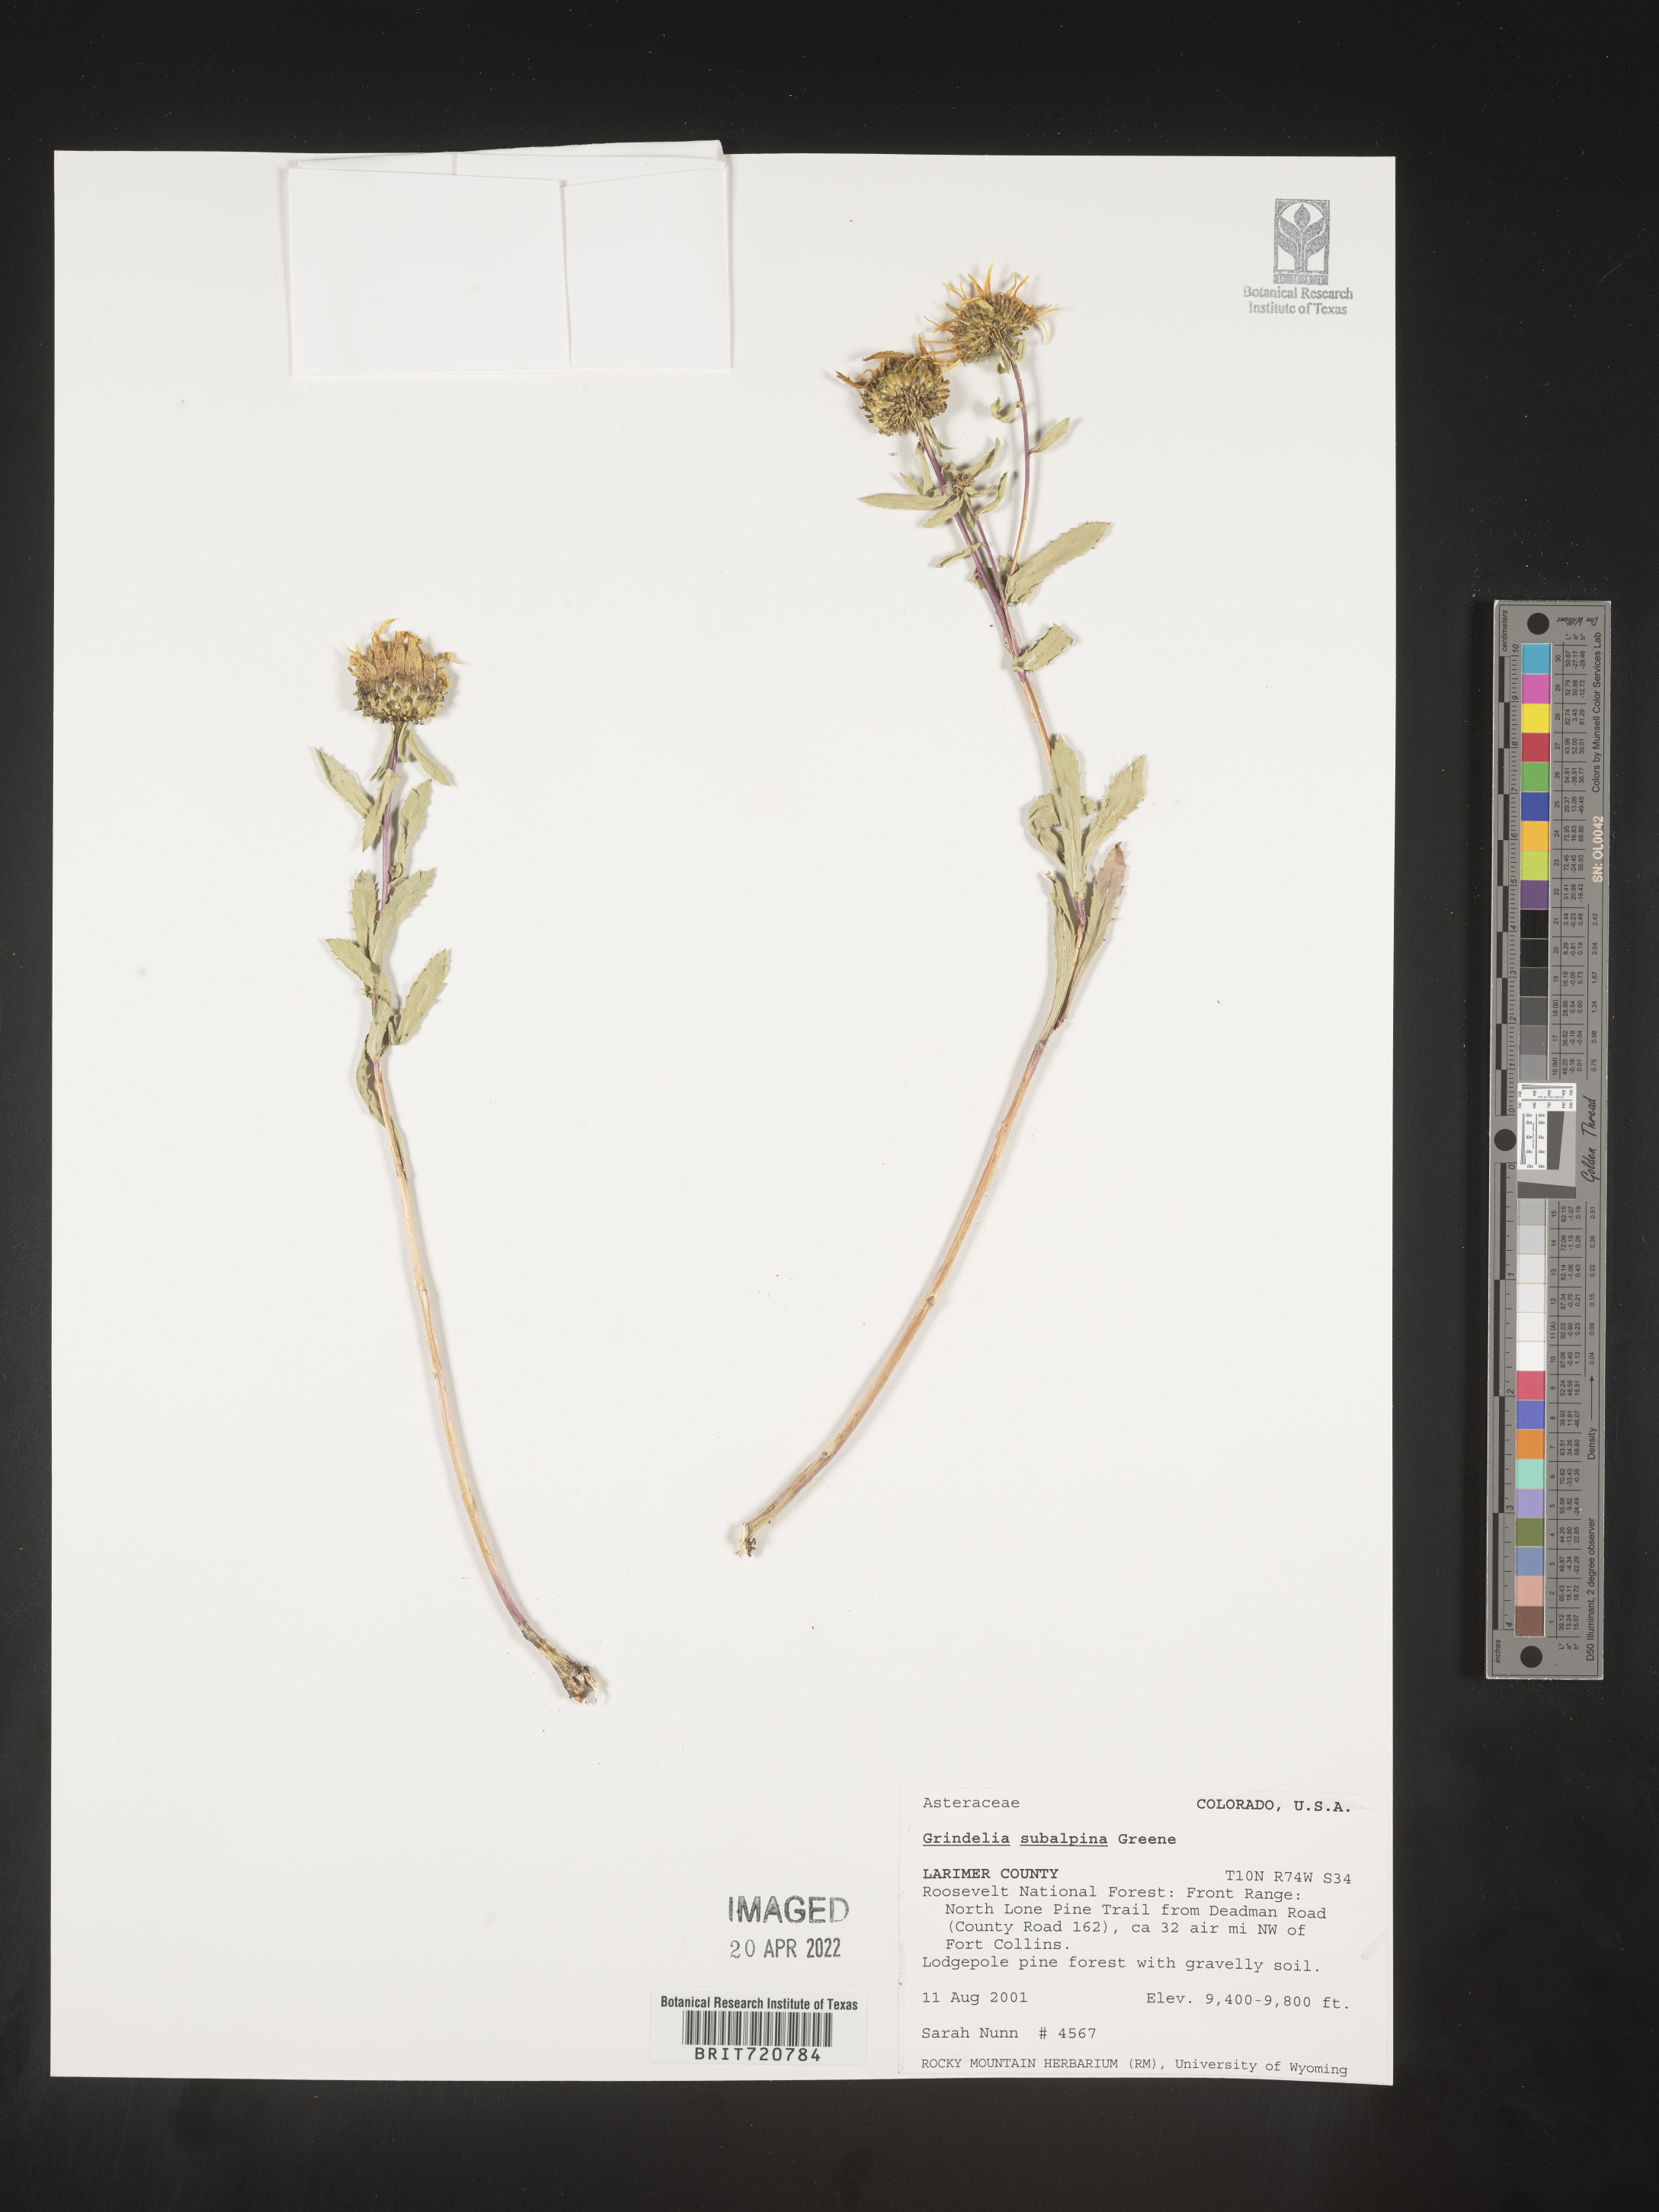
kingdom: Plantae
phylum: Tracheophyta
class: Magnoliopsida
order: Asterales
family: Asteraceae
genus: Grindelia
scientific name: Grindelia
